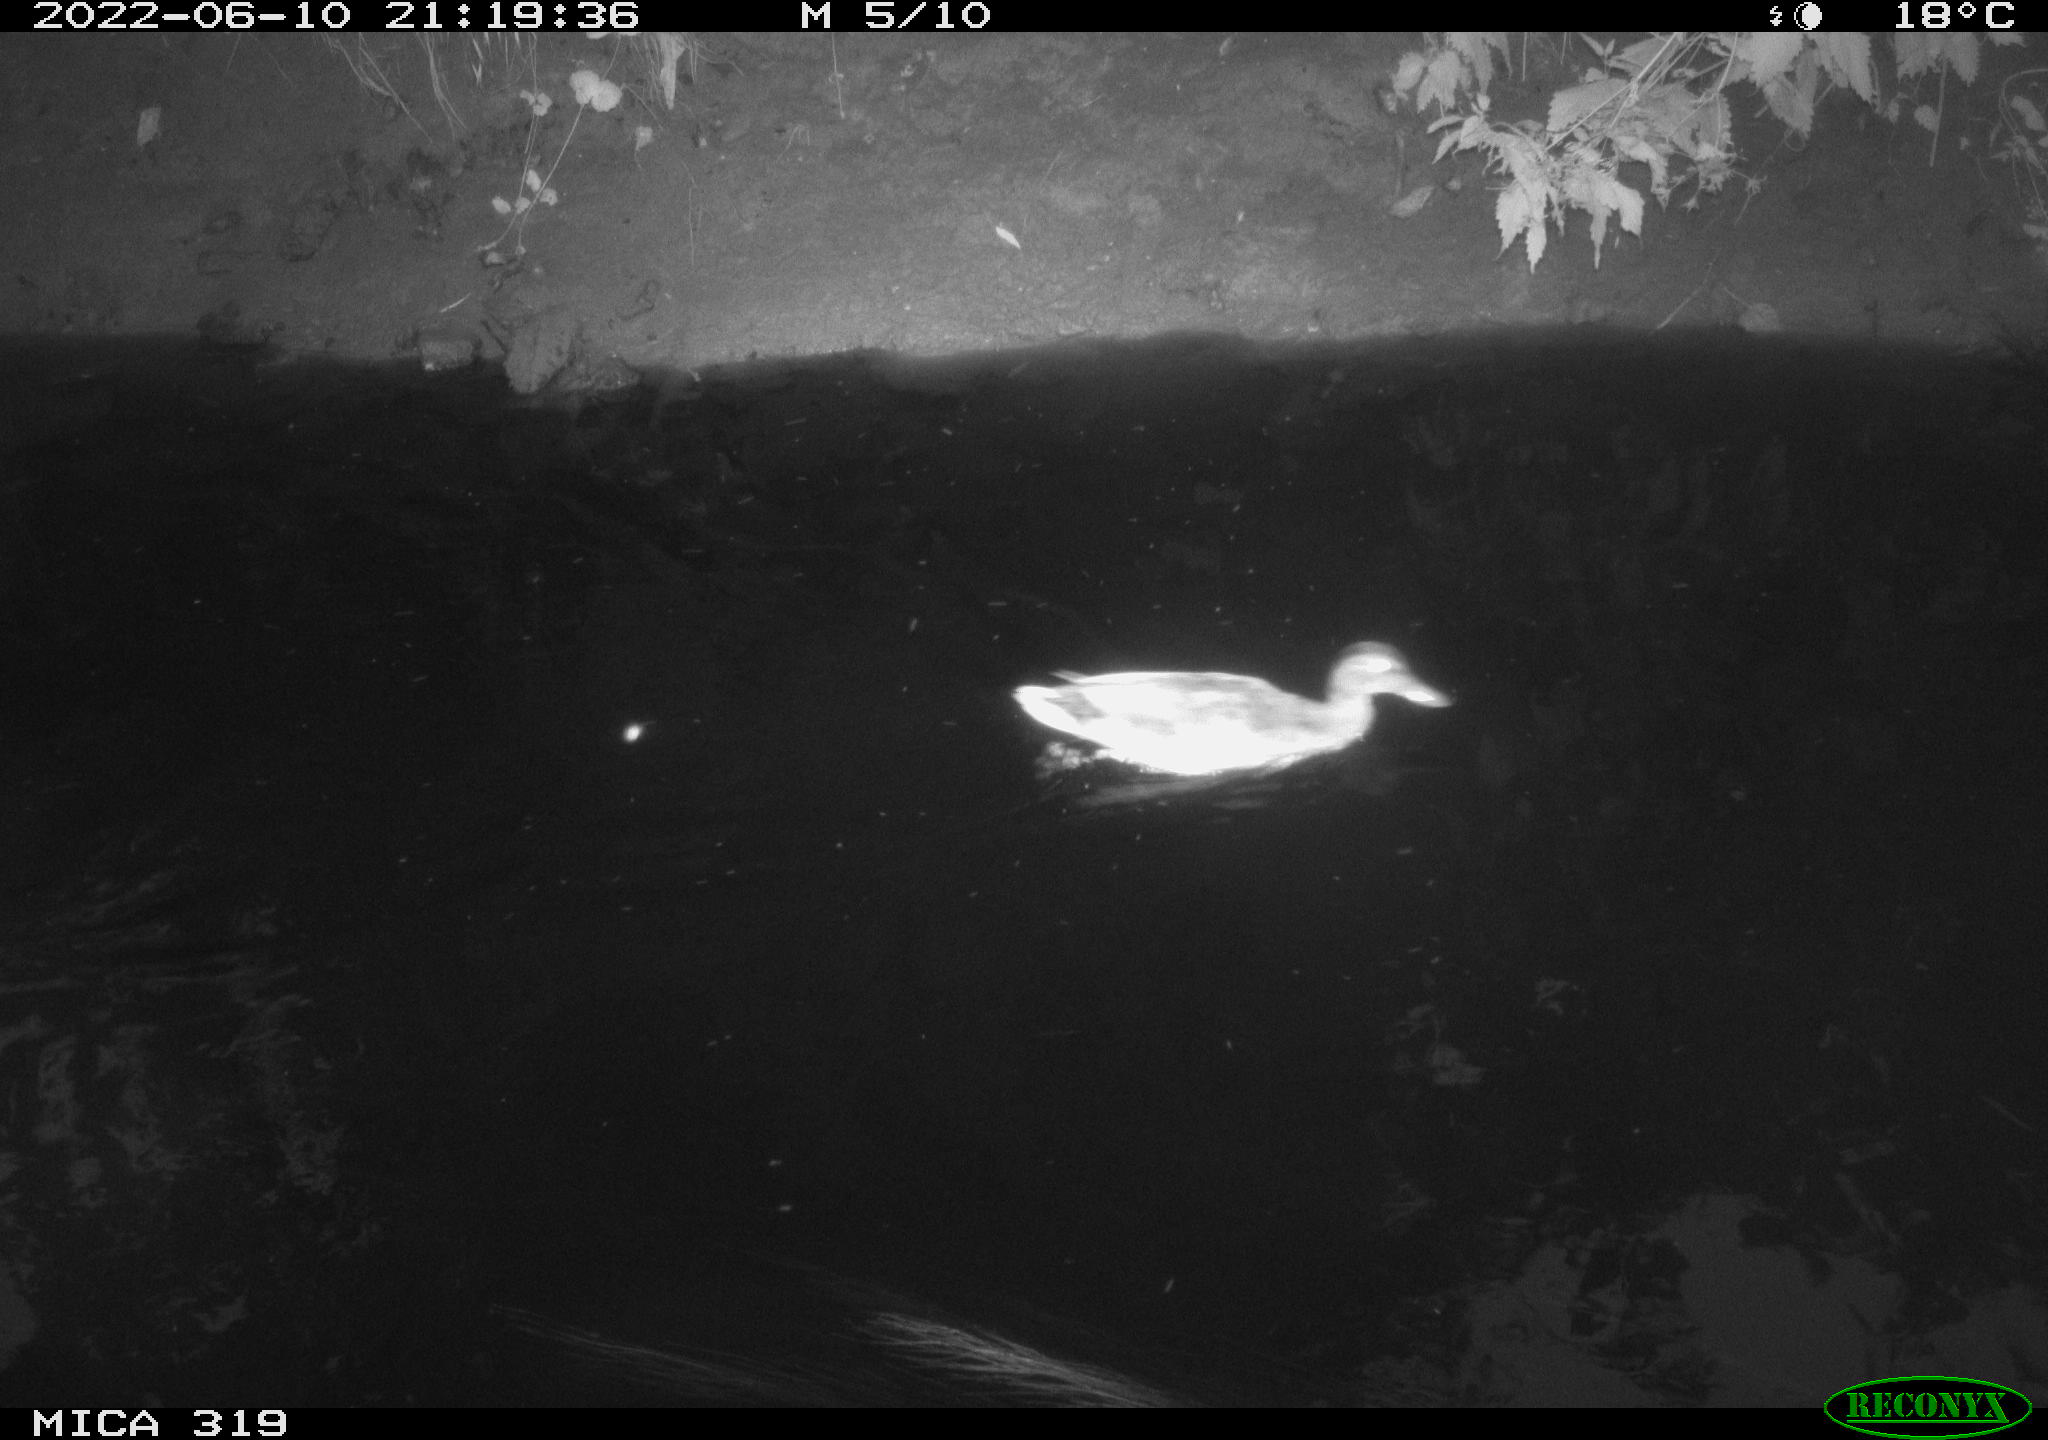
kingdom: Animalia
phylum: Chordata
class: Aves
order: Anseriformes
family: Anatidae
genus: Anas
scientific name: Anas
